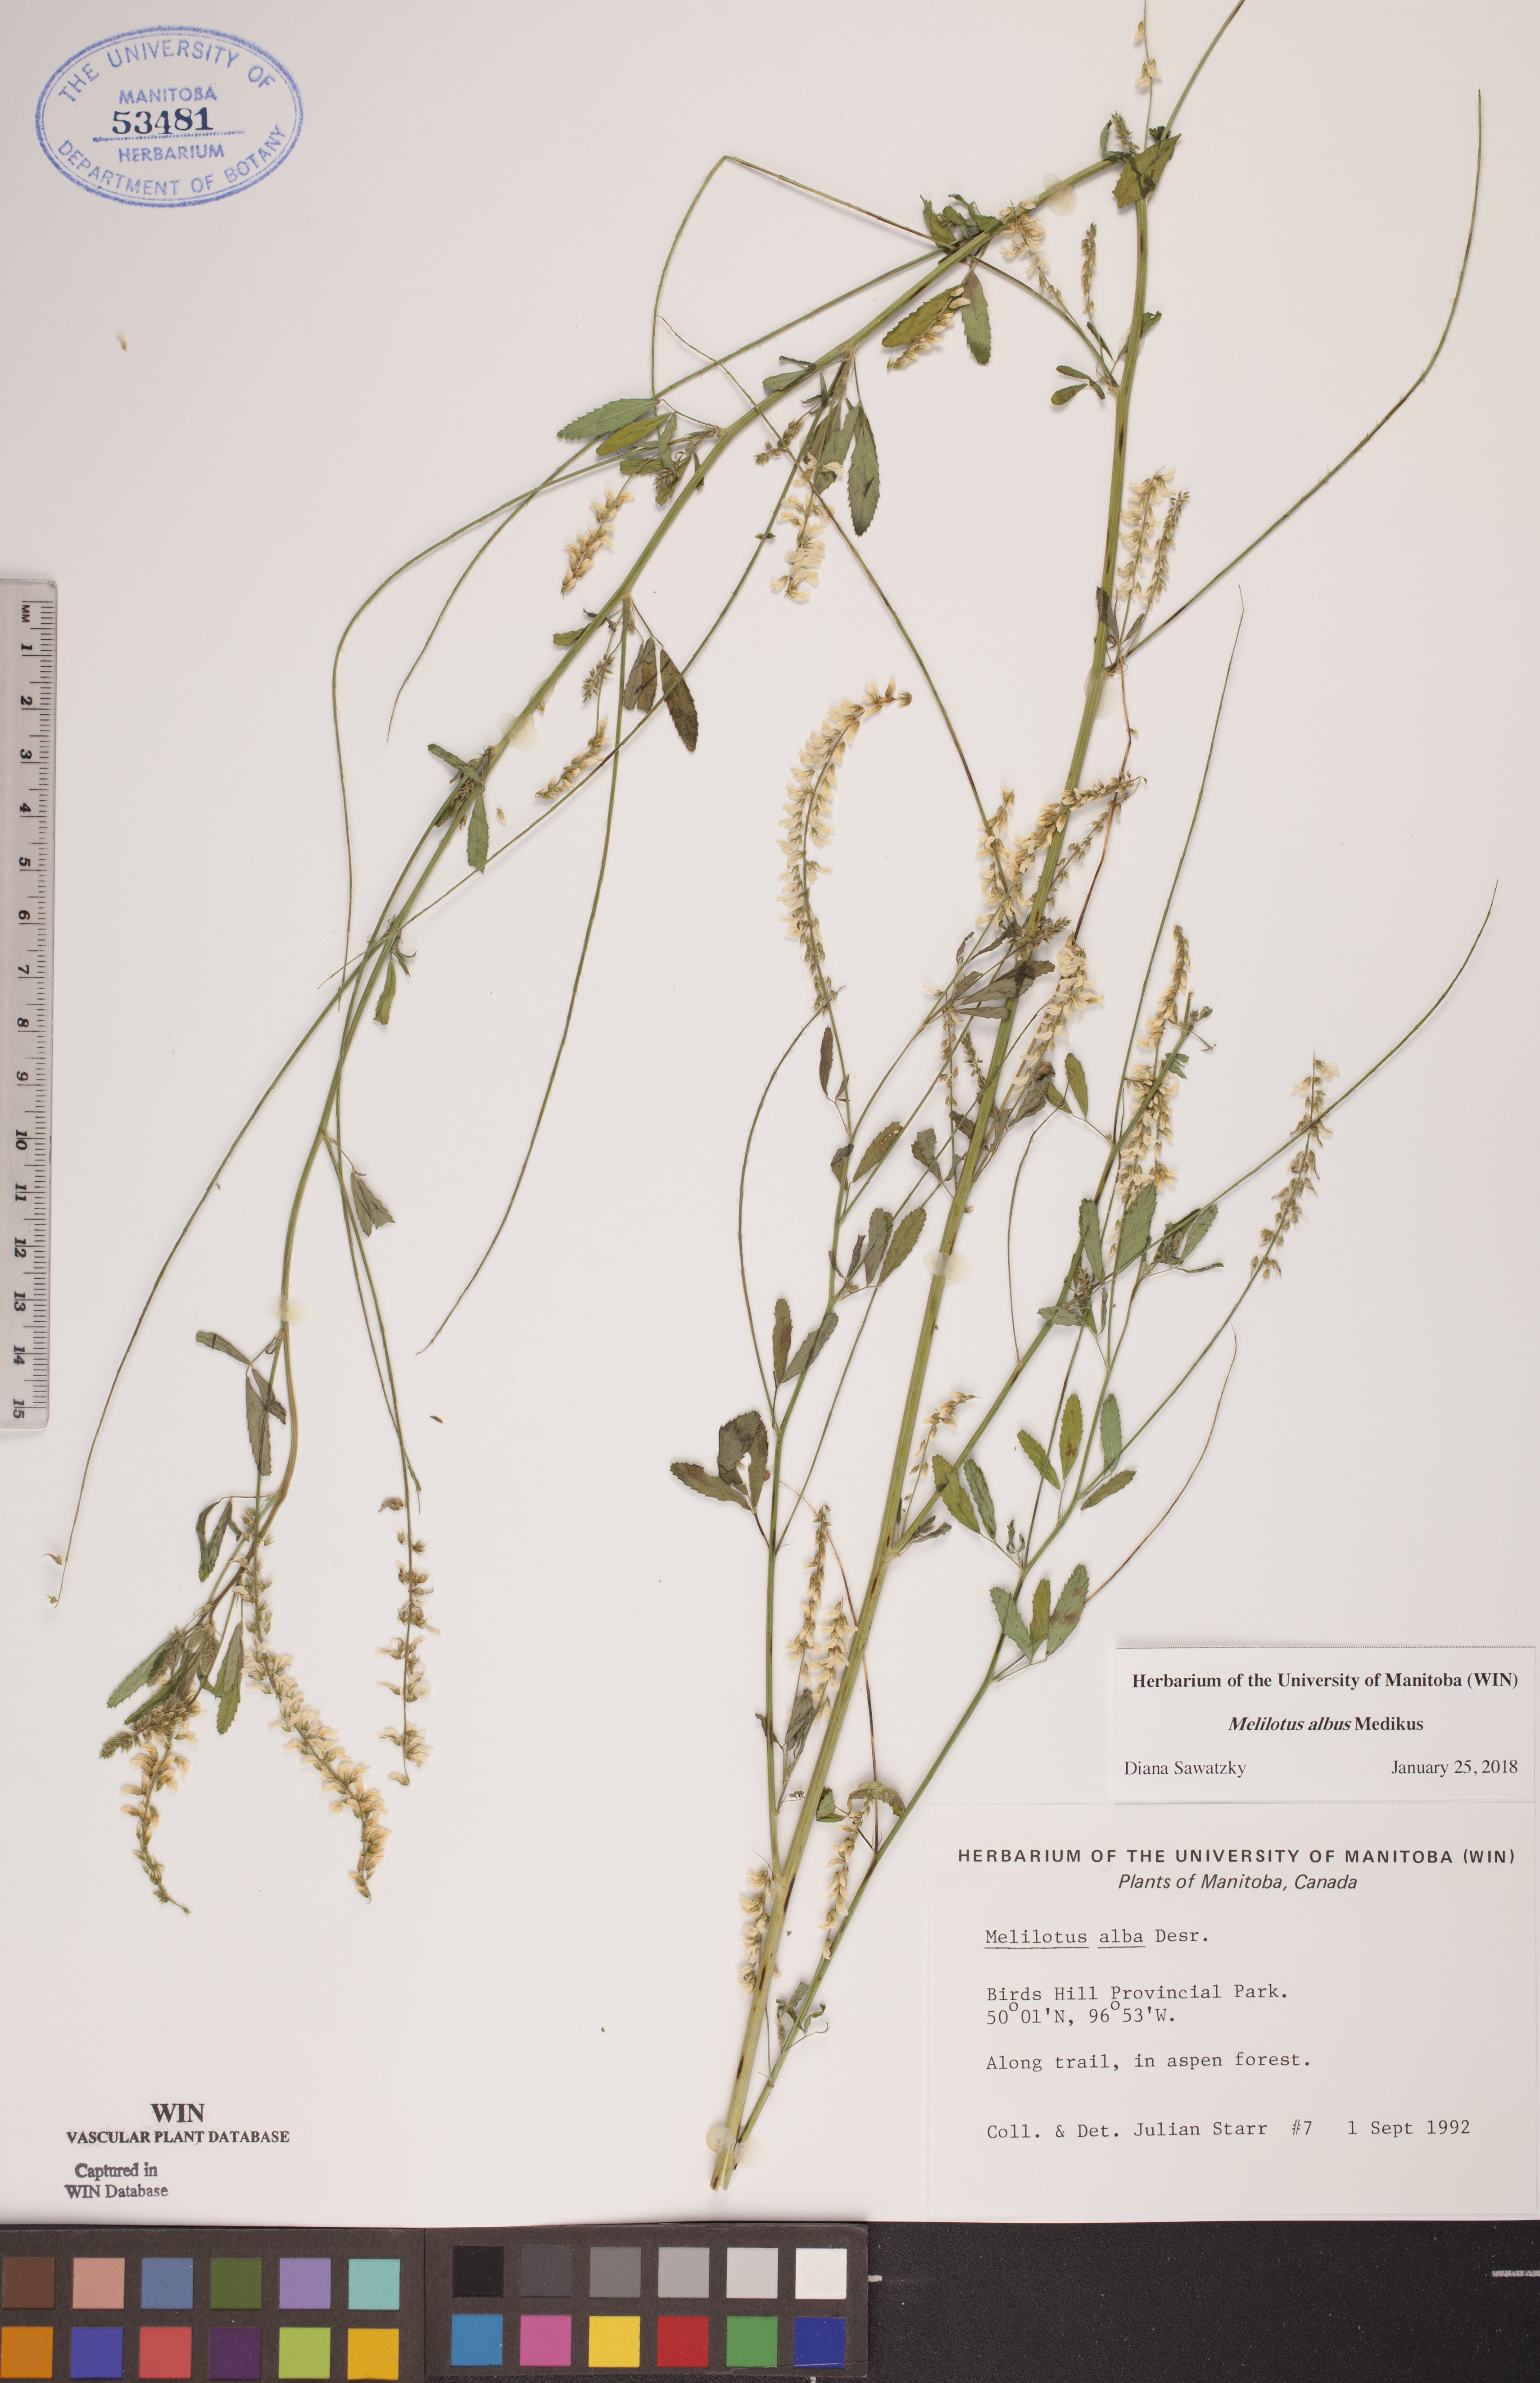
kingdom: Plantae
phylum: Tracheophyta
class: Magnoliopsida
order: Fabales
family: Fabaceae
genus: Melilotus
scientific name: Melilotus albus
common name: White melilot
